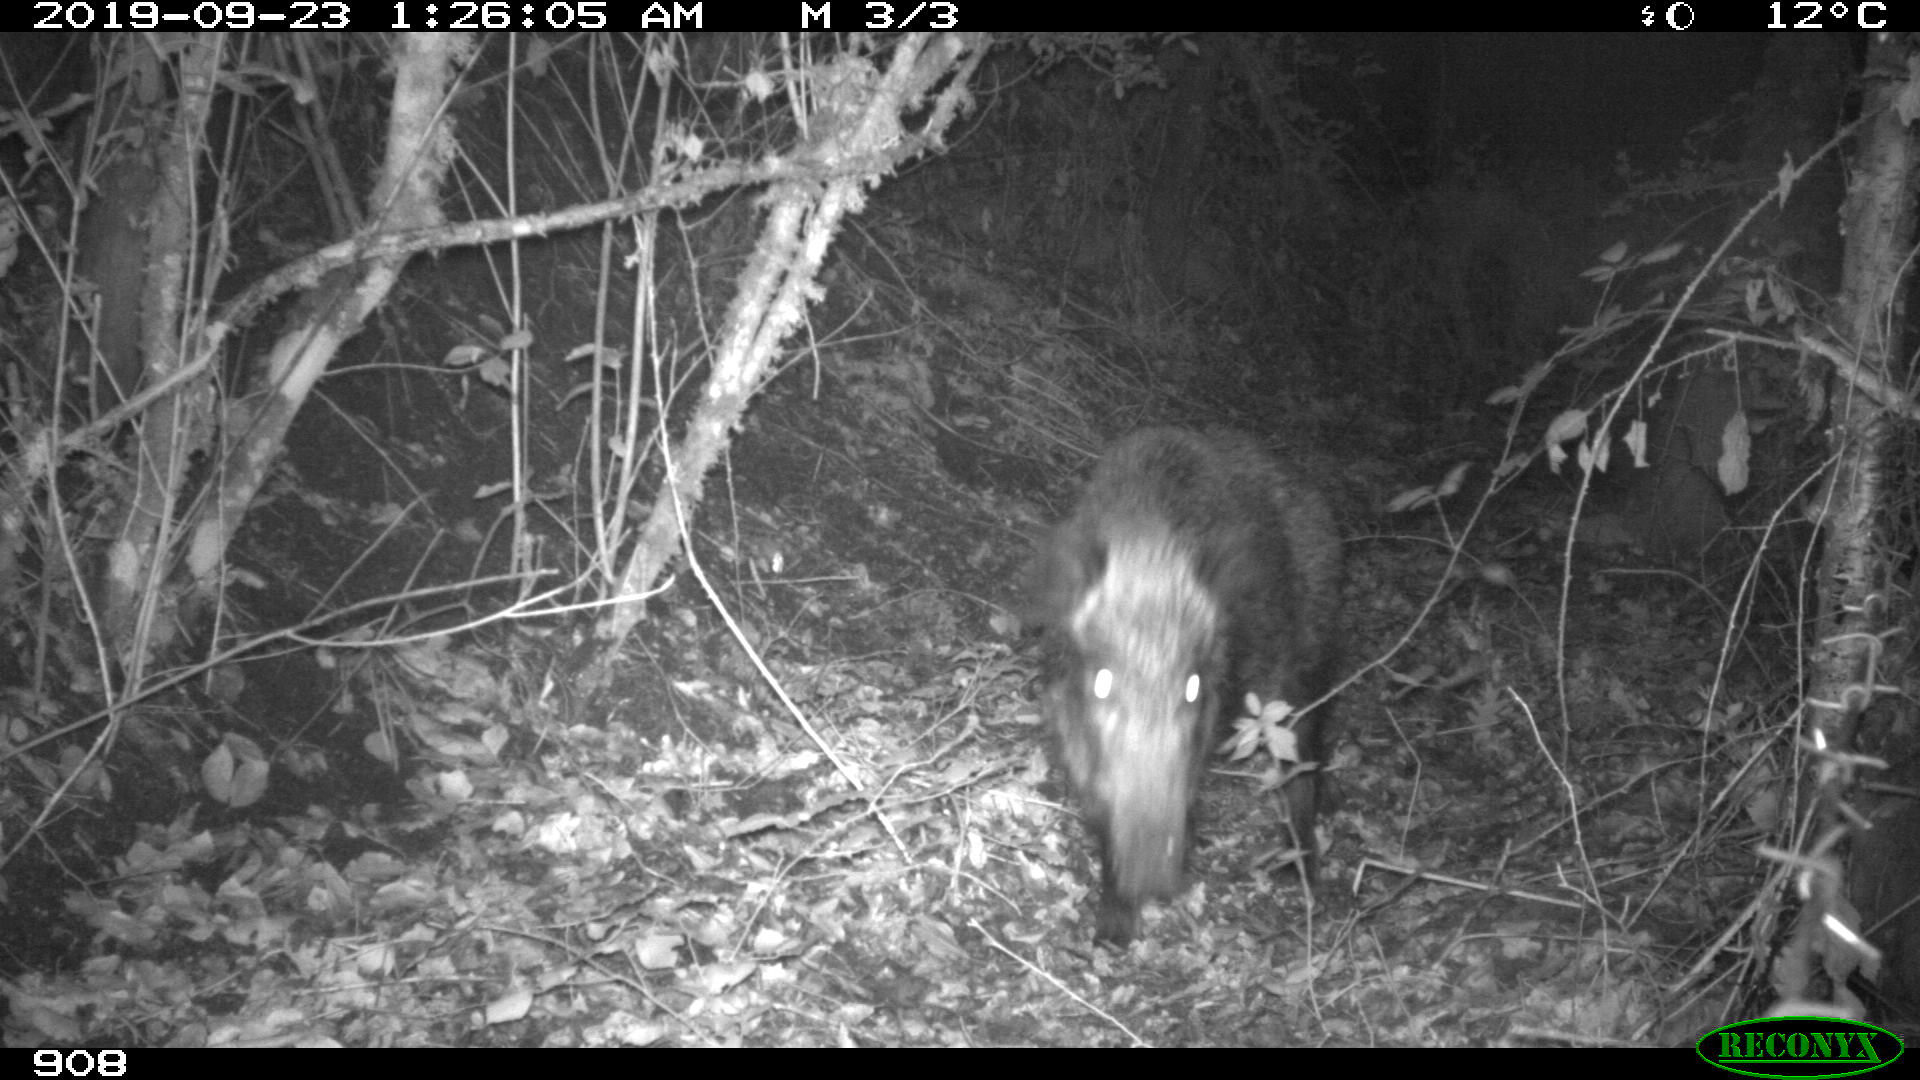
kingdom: Animalia
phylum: Chordata
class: Mammalia
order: Artiodactyla
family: Suidae
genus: Sus
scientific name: Sus scrofa
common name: Wild boar
